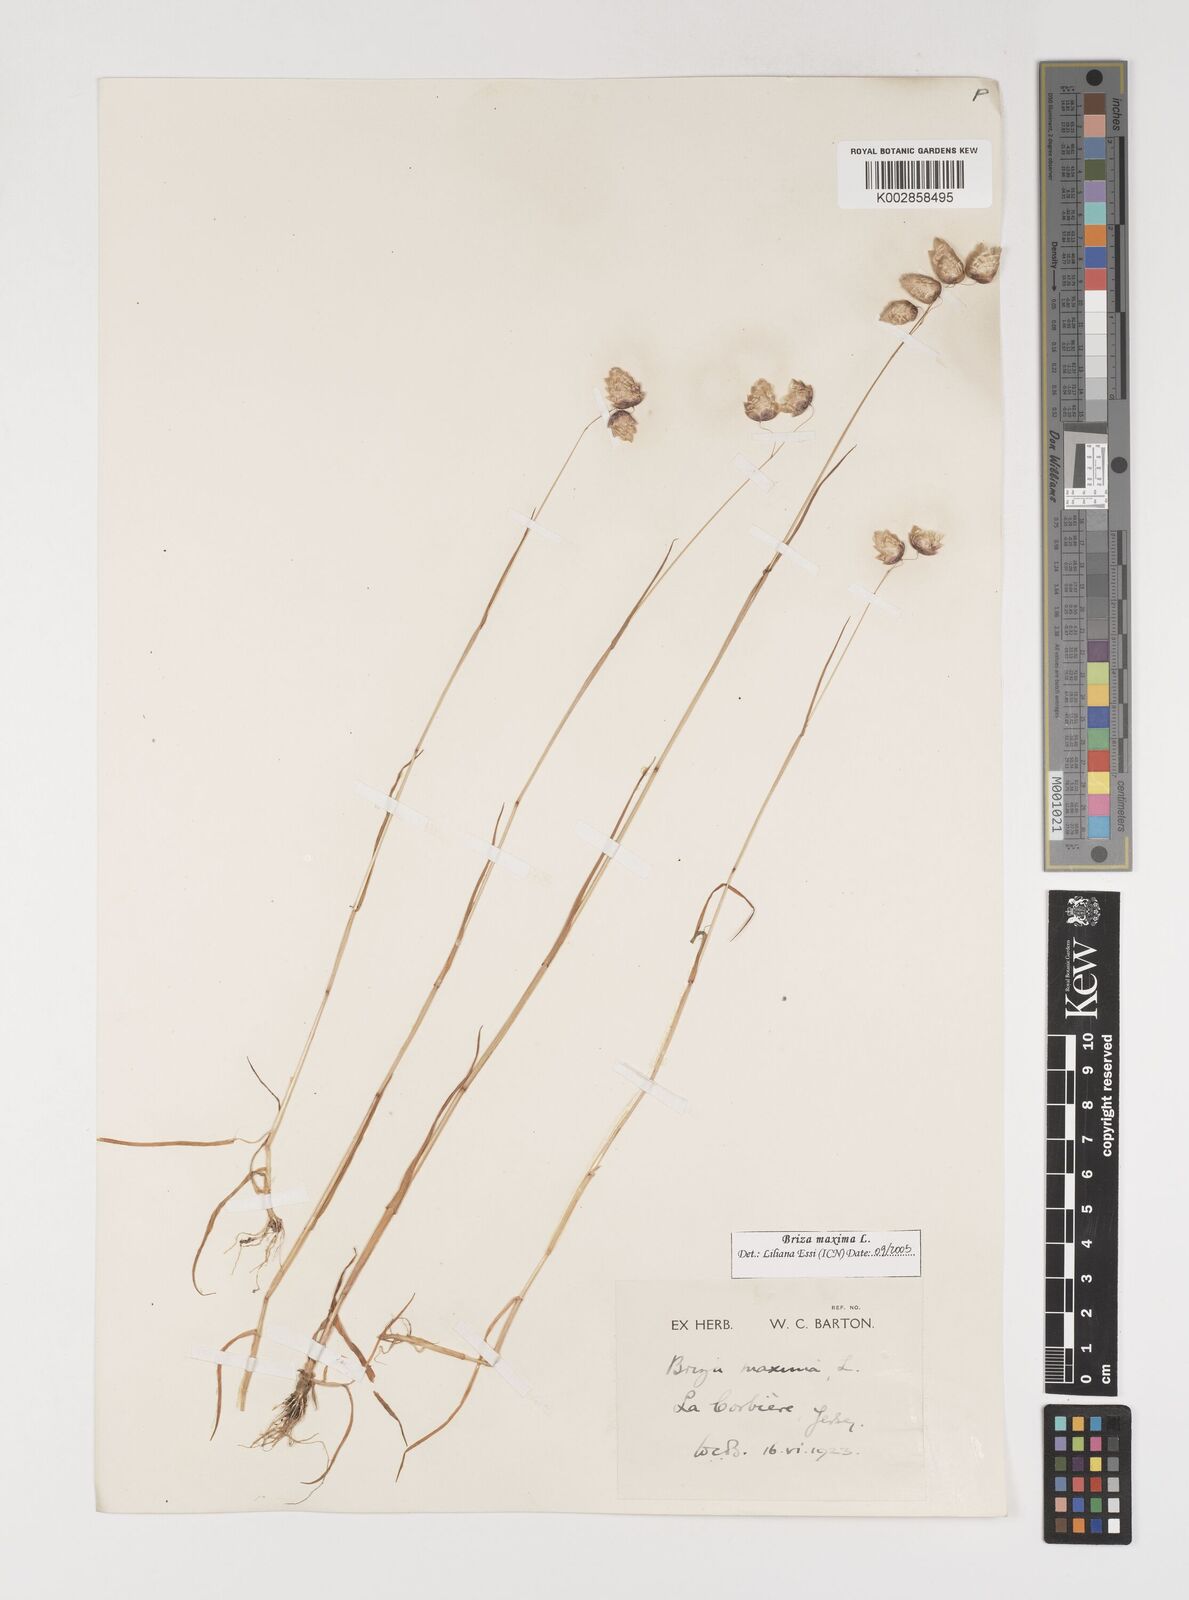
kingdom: Plantae
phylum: Tracheophyta
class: Liliopsida
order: Poales
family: Poaceae
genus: Briza
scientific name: Briza maxima
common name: Big quakinggrass
